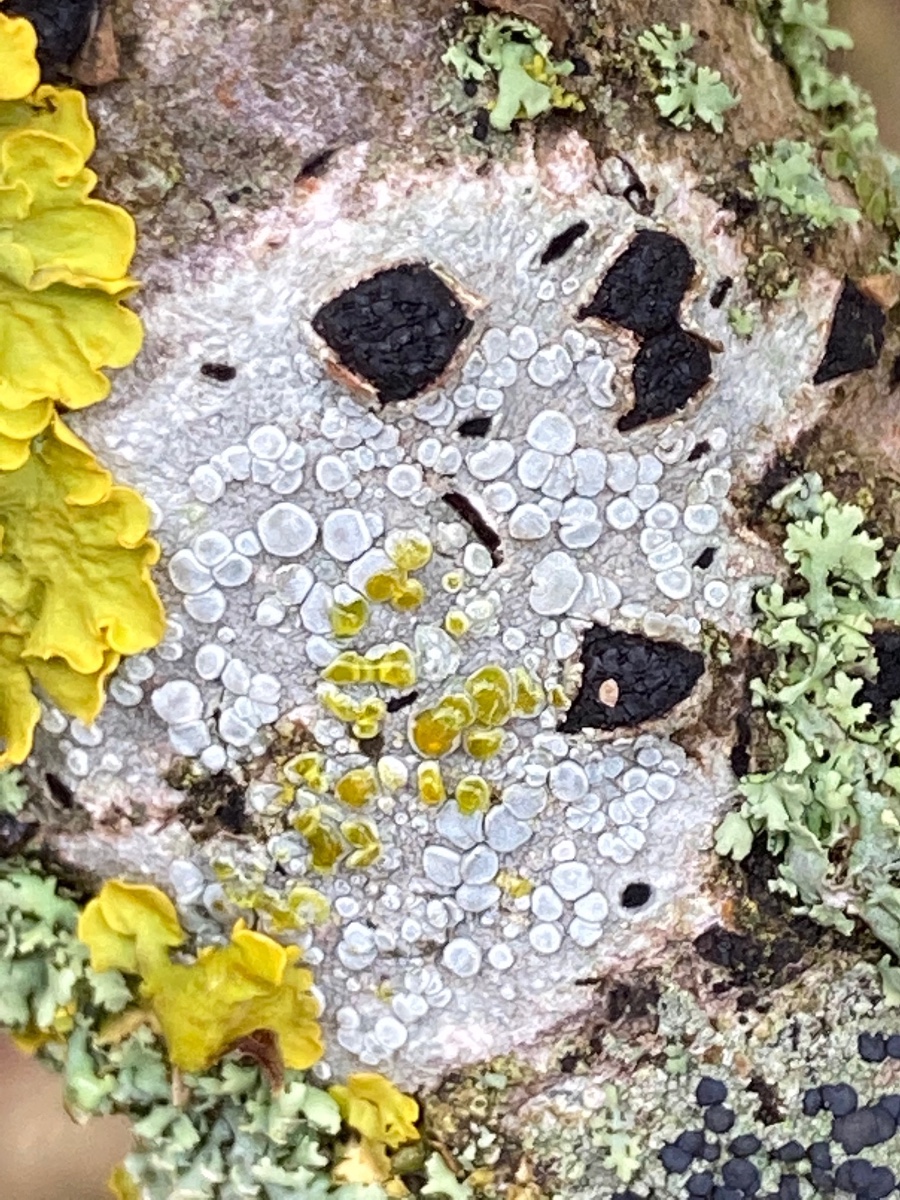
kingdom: Fungi
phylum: Ascomycota
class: Lecanoromycetes
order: Lecanorales
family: Lecanoraceae
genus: Glaucomaria
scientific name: Glaucomaria carpinea
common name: hviddugget kantskivelav
